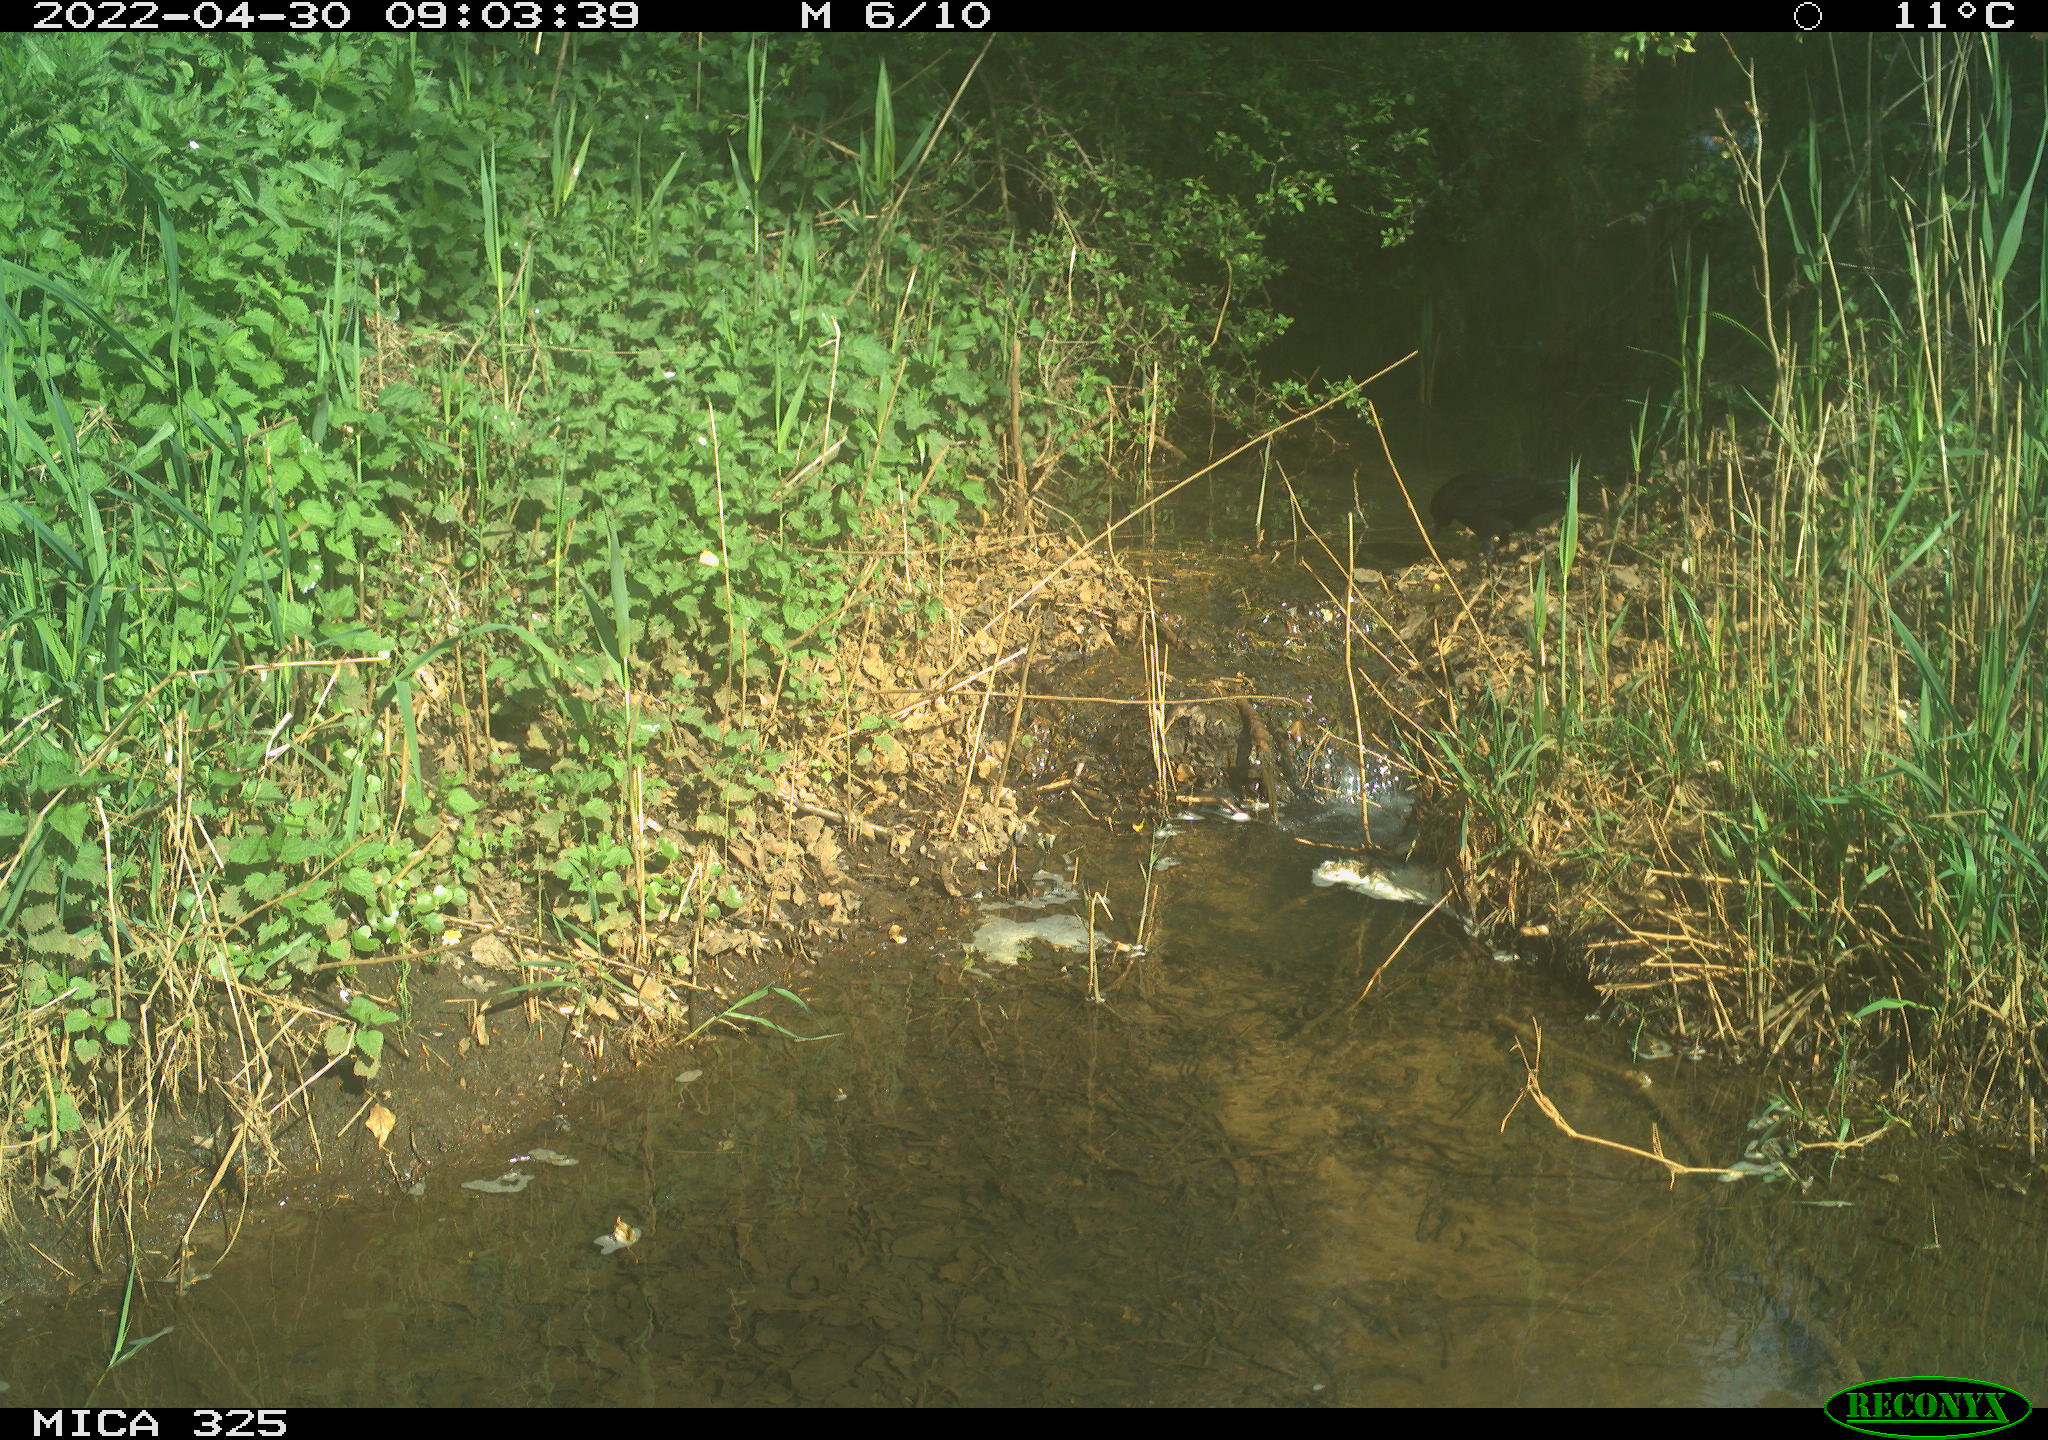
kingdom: Animalia
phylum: Chordata
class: Aves
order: Passeriformes
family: Corvidae
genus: Corvus
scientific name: Corvus corone
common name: Carrion crow
